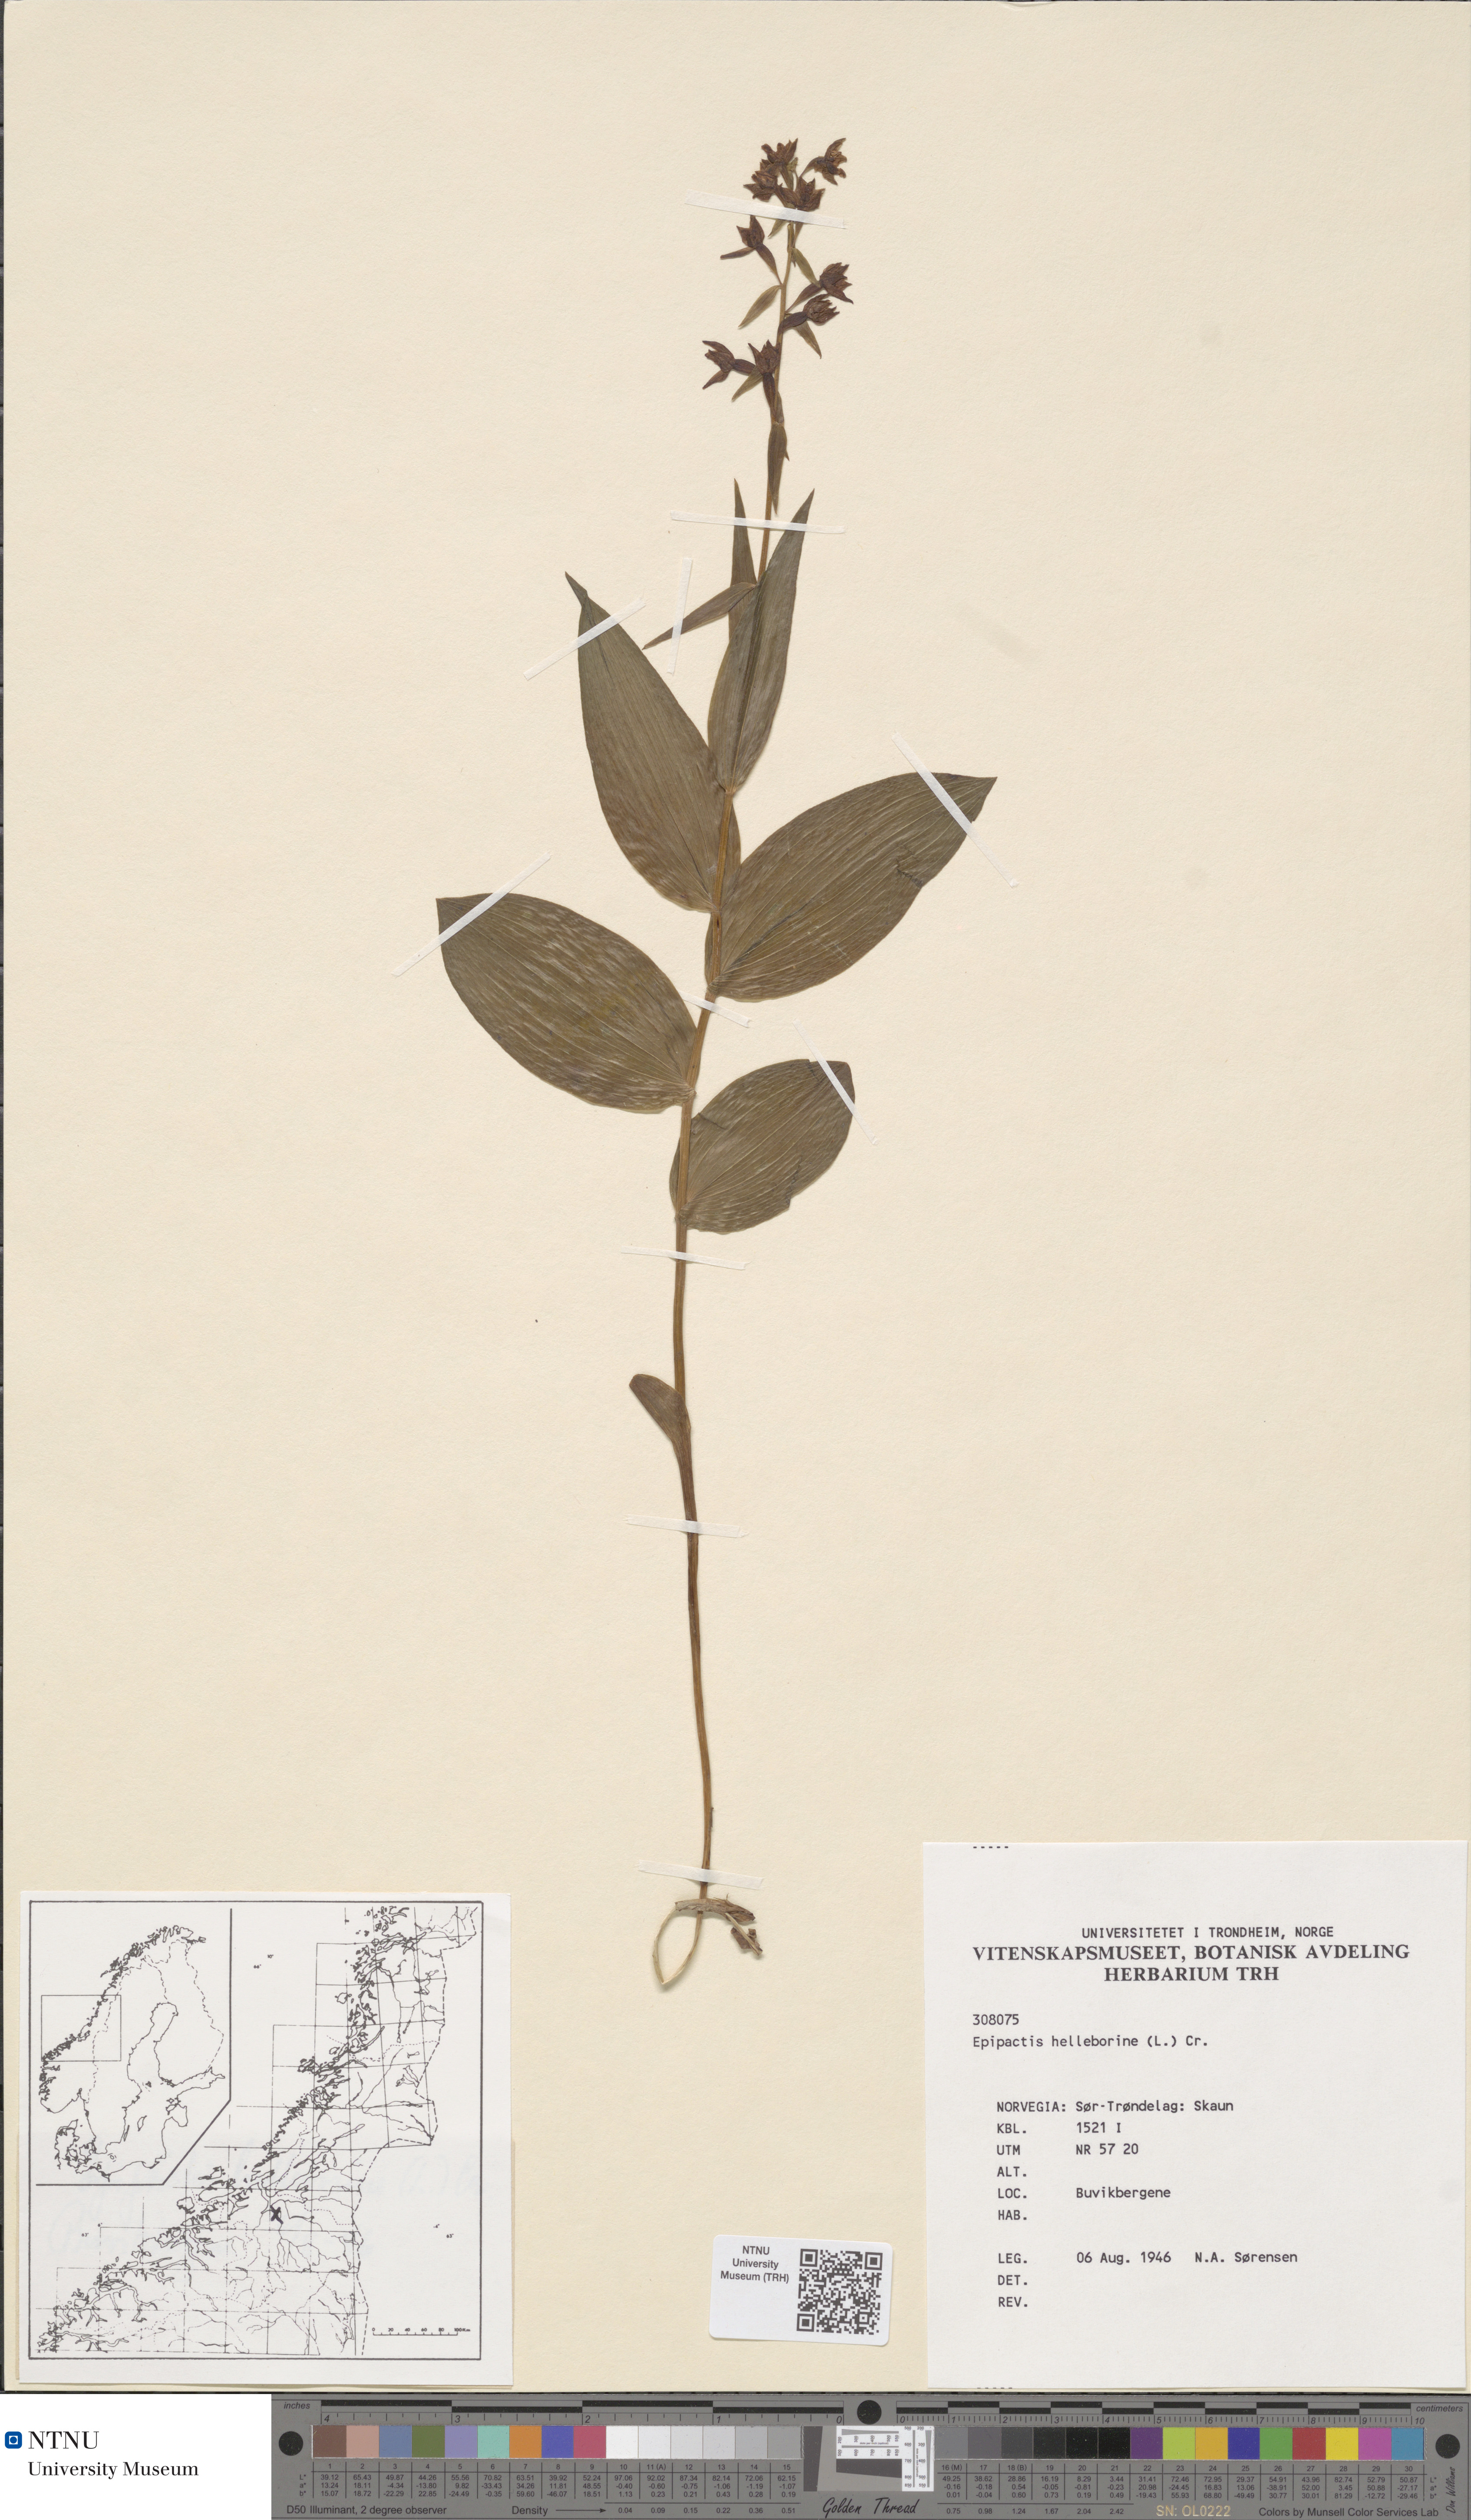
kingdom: Plantae
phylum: Tracheophyta
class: Liliopsida
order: Asparagales
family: Orchidaceae
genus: Epipactis
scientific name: Epipactis helleborine
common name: Broad-leaved helleborine
